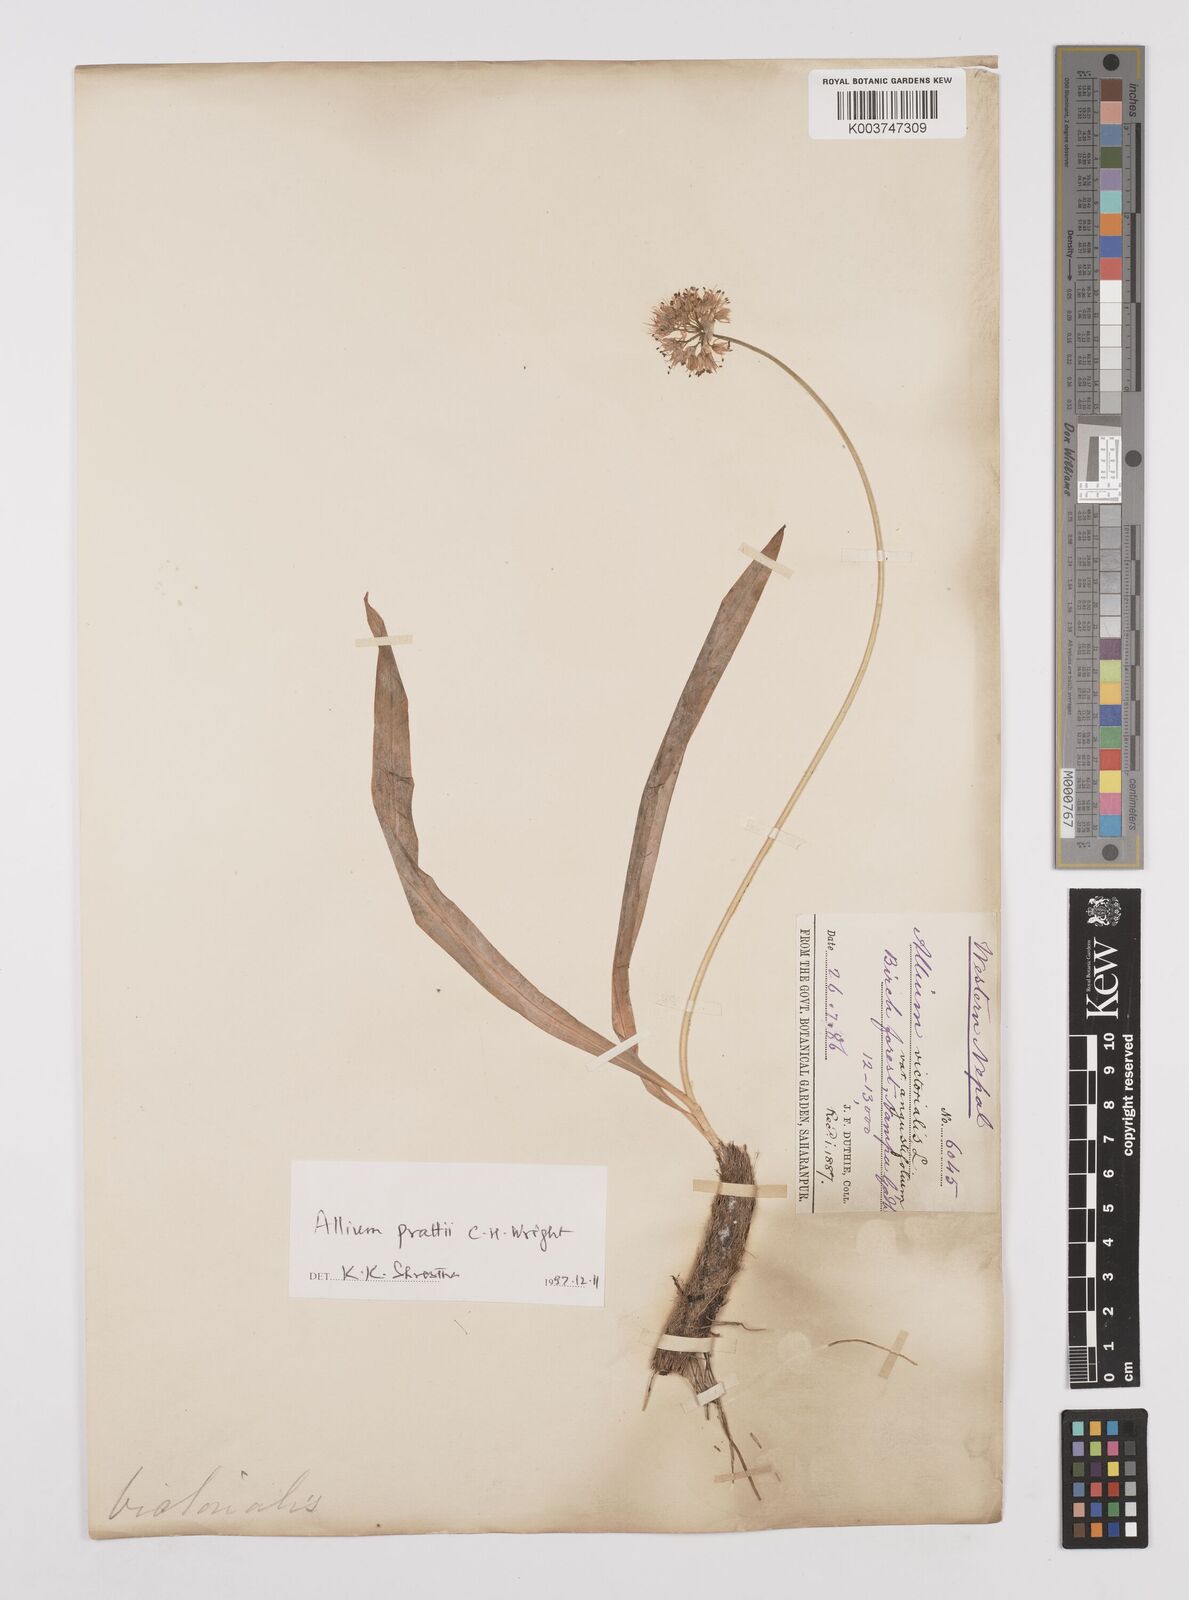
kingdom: Plantae
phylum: Tracheophyta
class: Liliopsida
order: Asparagales
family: Amaryllidaceae
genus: Allium
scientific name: Allium prattii
